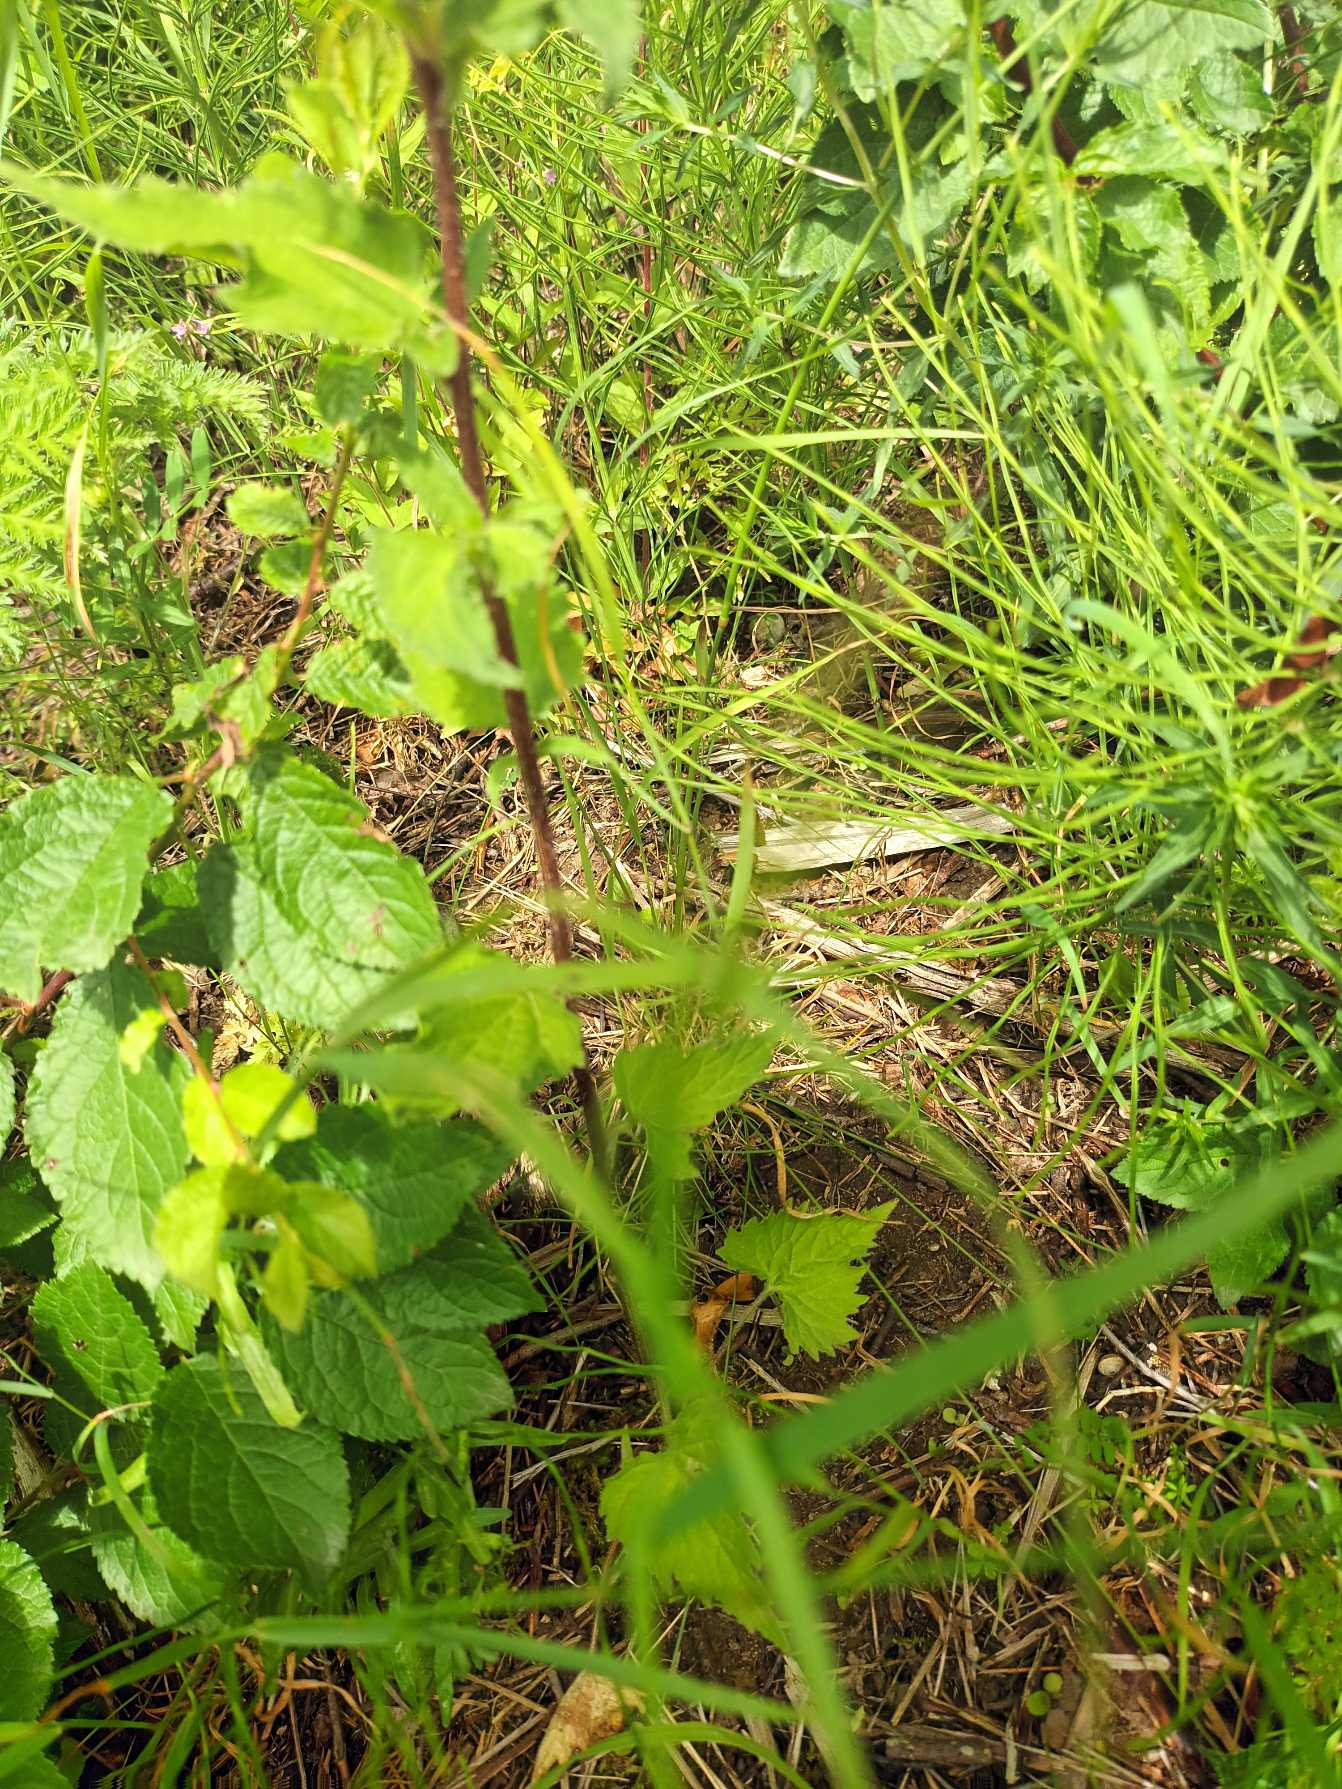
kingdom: Plantae
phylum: Tracheophyta
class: Magnoliopsida
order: Asterales
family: Campanulaceae
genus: Campanula
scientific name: Campanula trachelium
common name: Nælde-klokke
